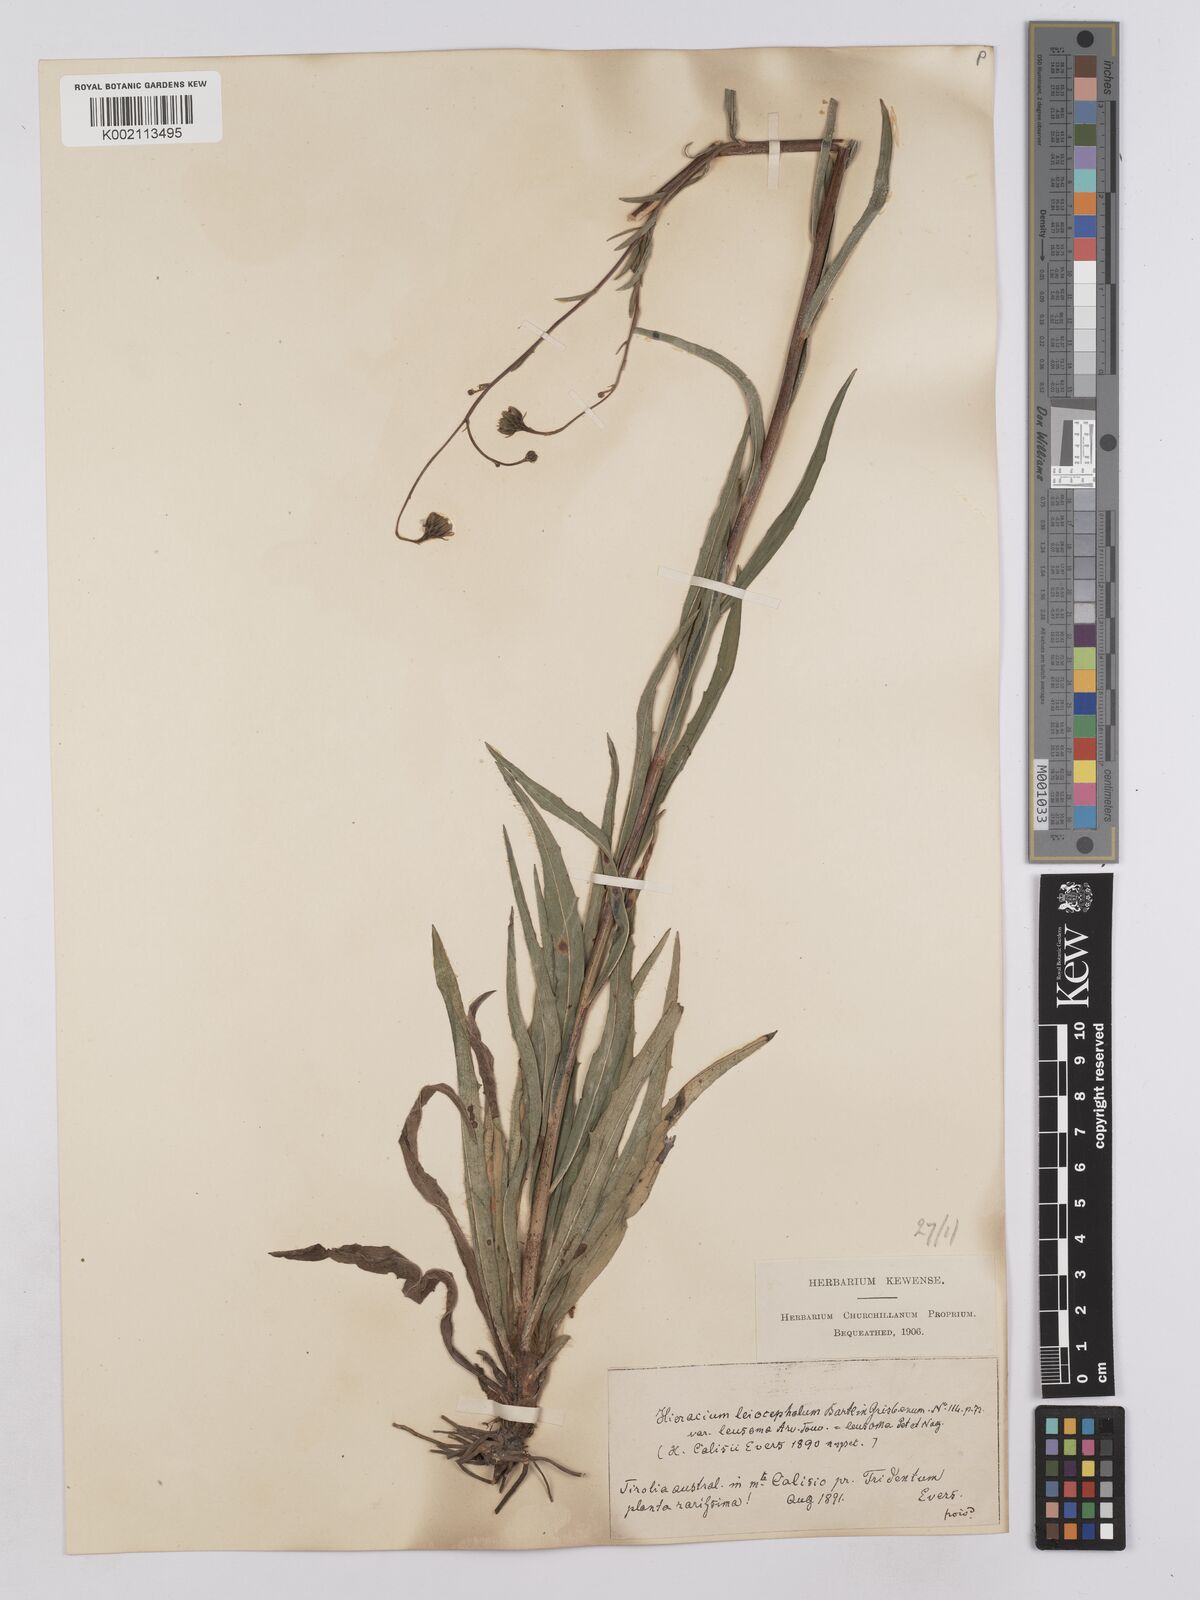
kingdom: Plantae
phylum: Tracheophyta
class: Magnoliopsida
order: Asterales
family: Asteraceae
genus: Hieracium
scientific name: Hieracium leiocephalum
